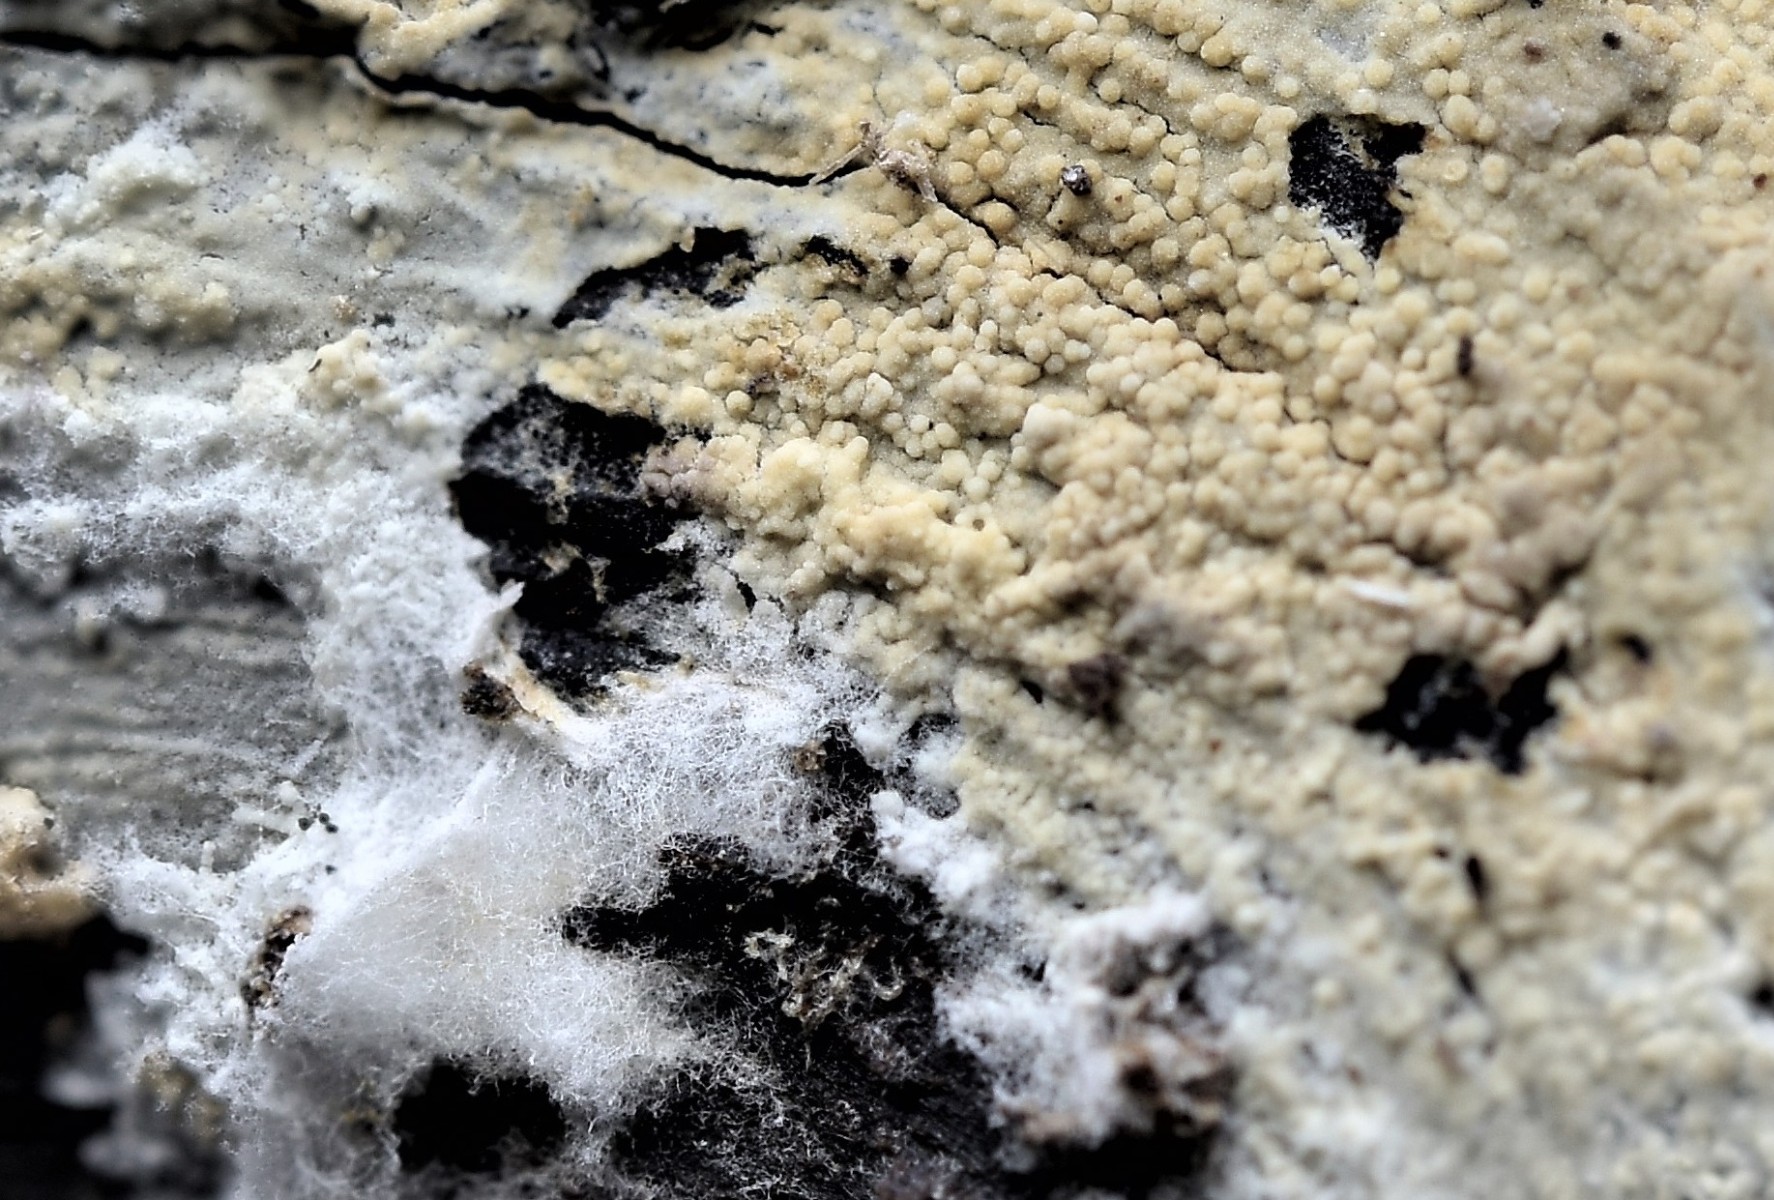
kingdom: Fungi
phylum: Basidiomycota
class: Agaricomycetes
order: Trechisporales
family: Hydnodontaceae
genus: Brevicellicium
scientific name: Brevicellicium olivascens
